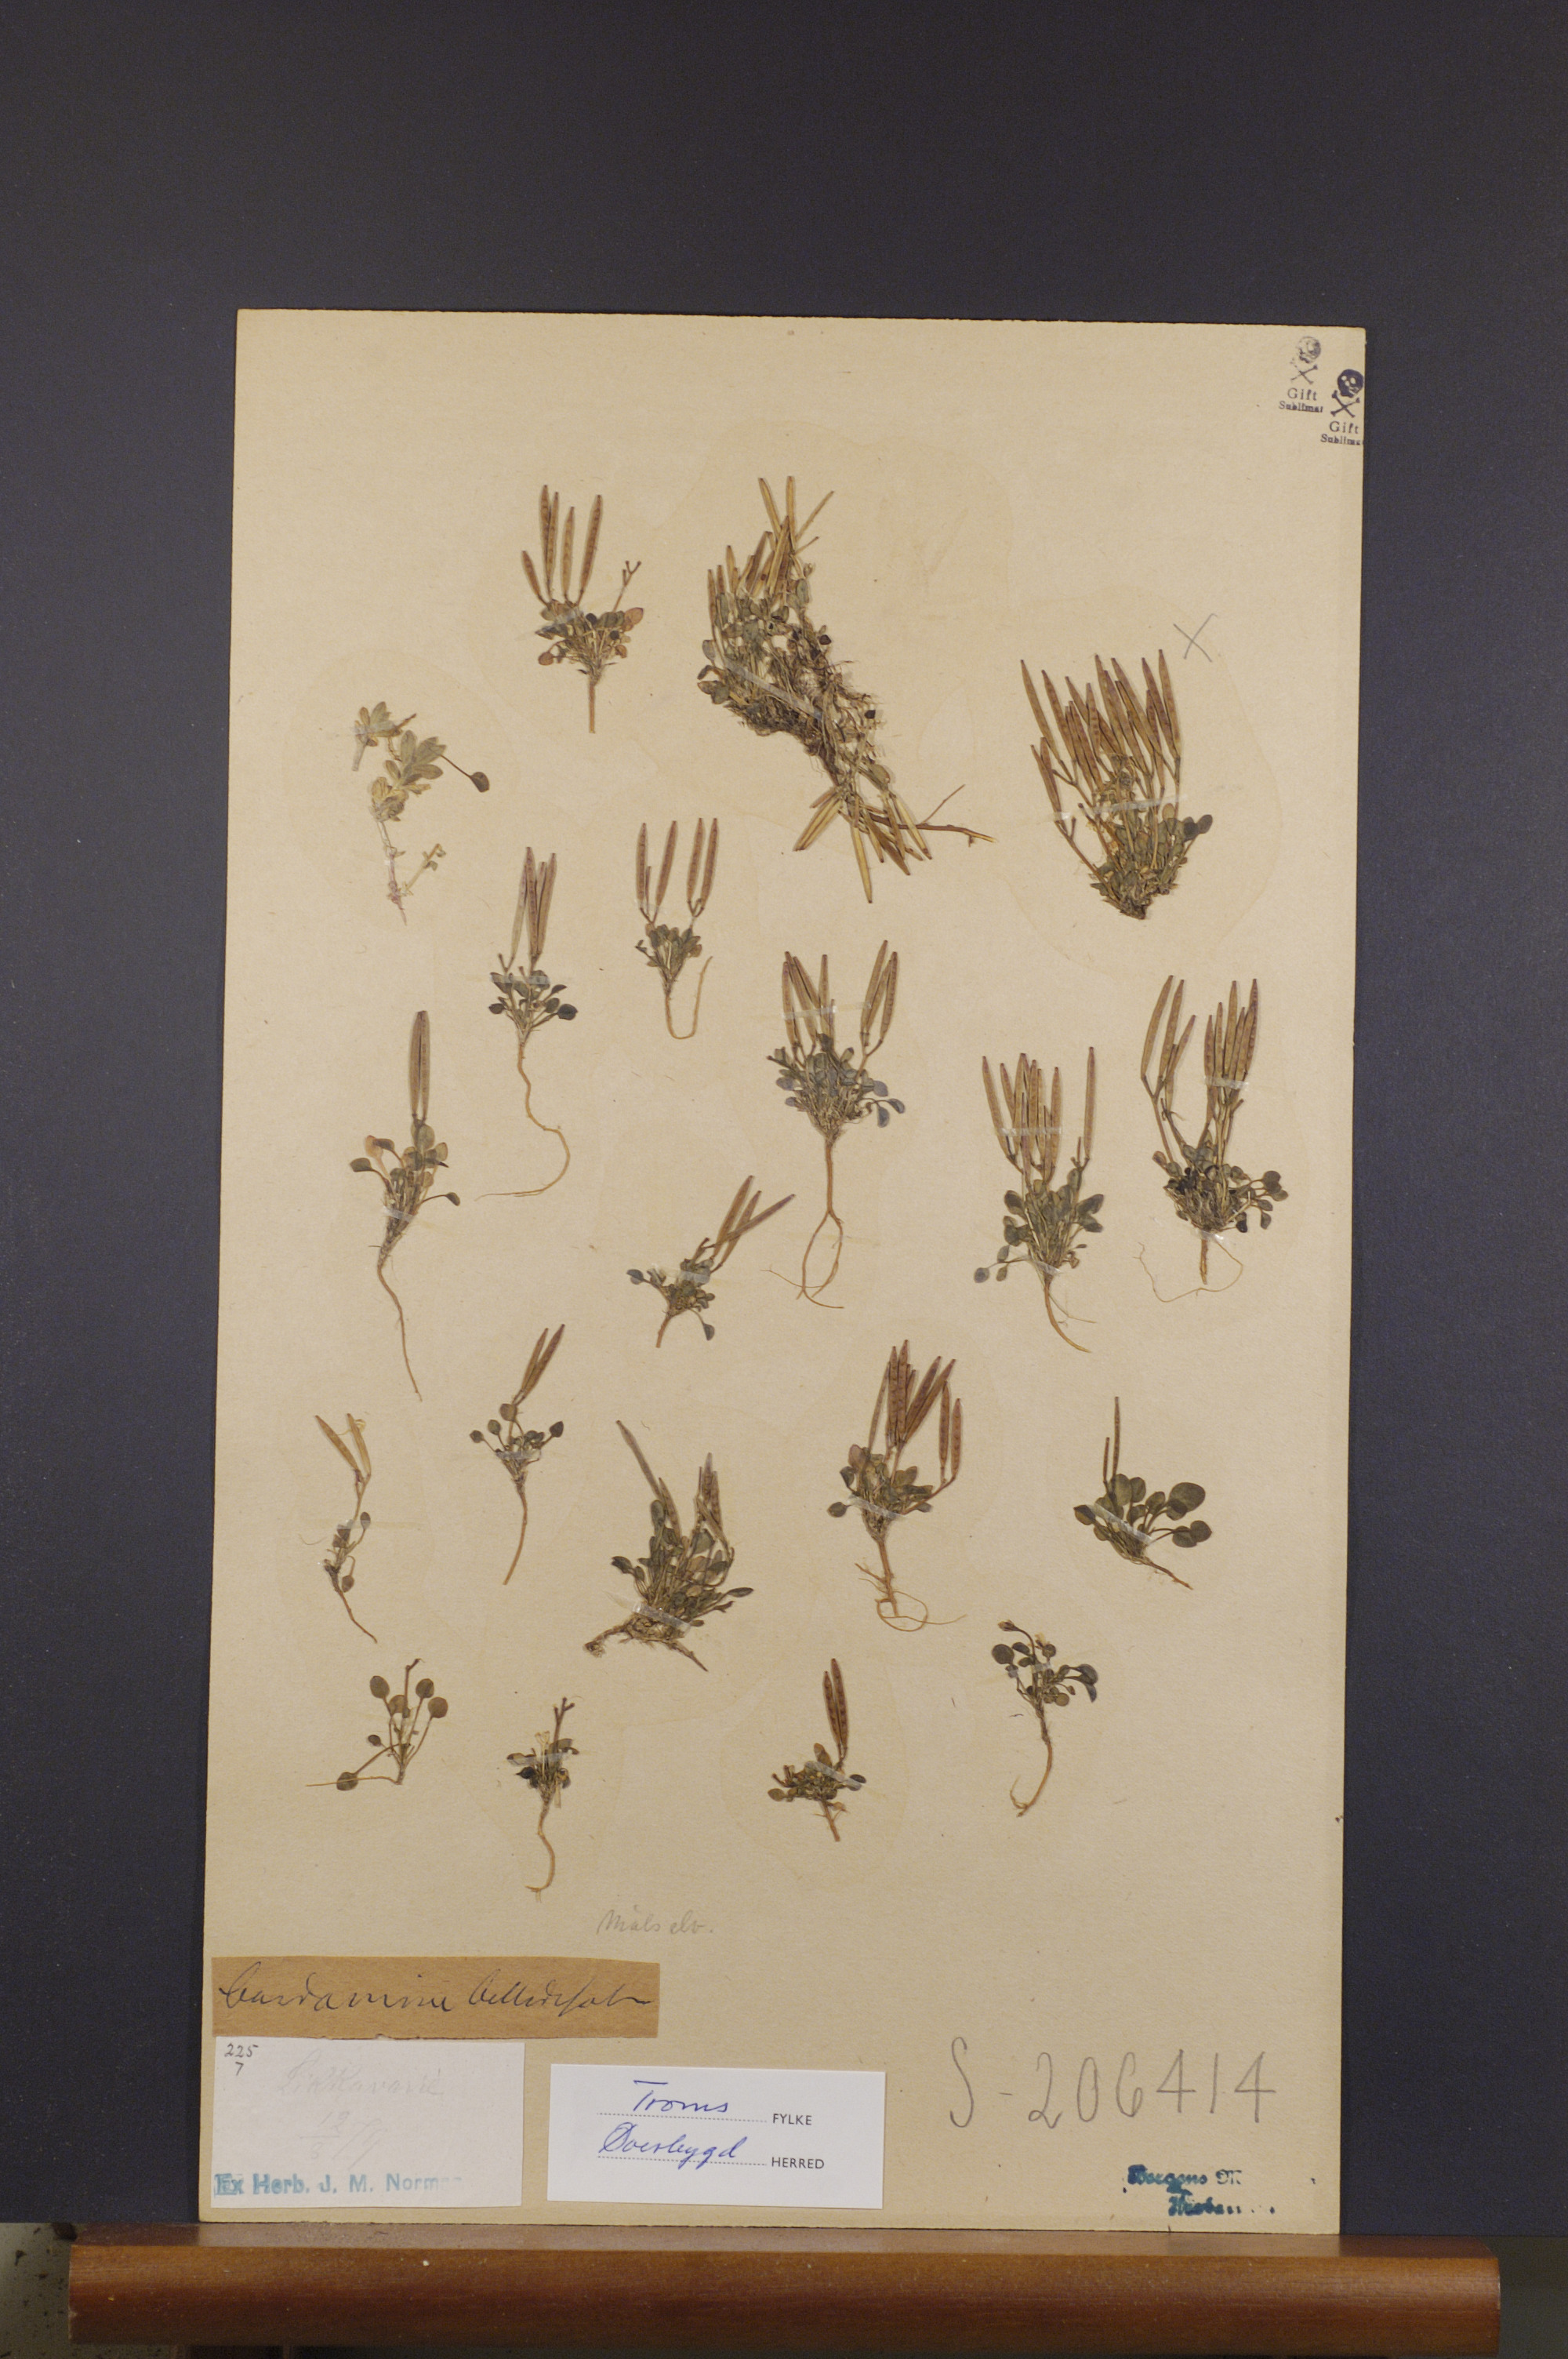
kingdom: Plantae
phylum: Tracheophyta
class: Magnoliopsida
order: Brassicales
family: Brassicaceae
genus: Cardamine
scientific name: Cardamine bellidifolia
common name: Alpine bittercress
